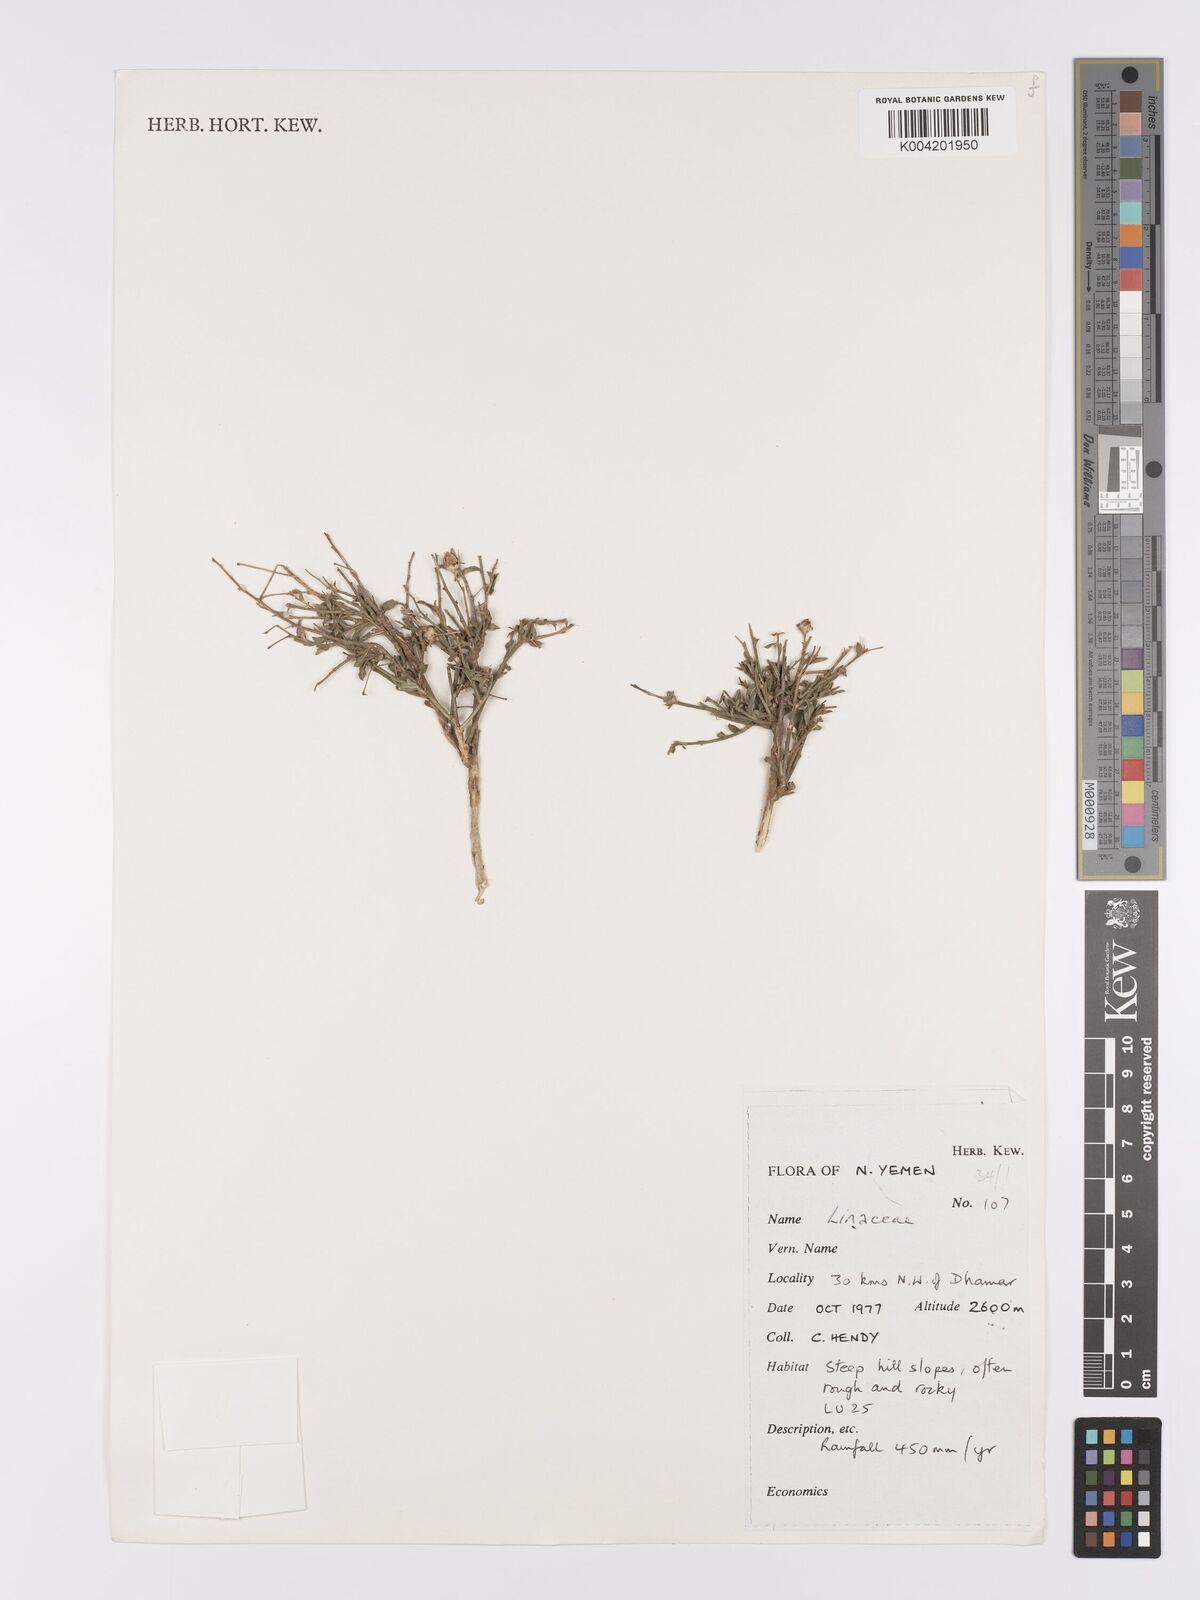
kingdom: Plantae
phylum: Tracheophyta
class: Magnoliopsida
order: Malpighiales
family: Linaceae
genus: Linum
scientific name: Linum
